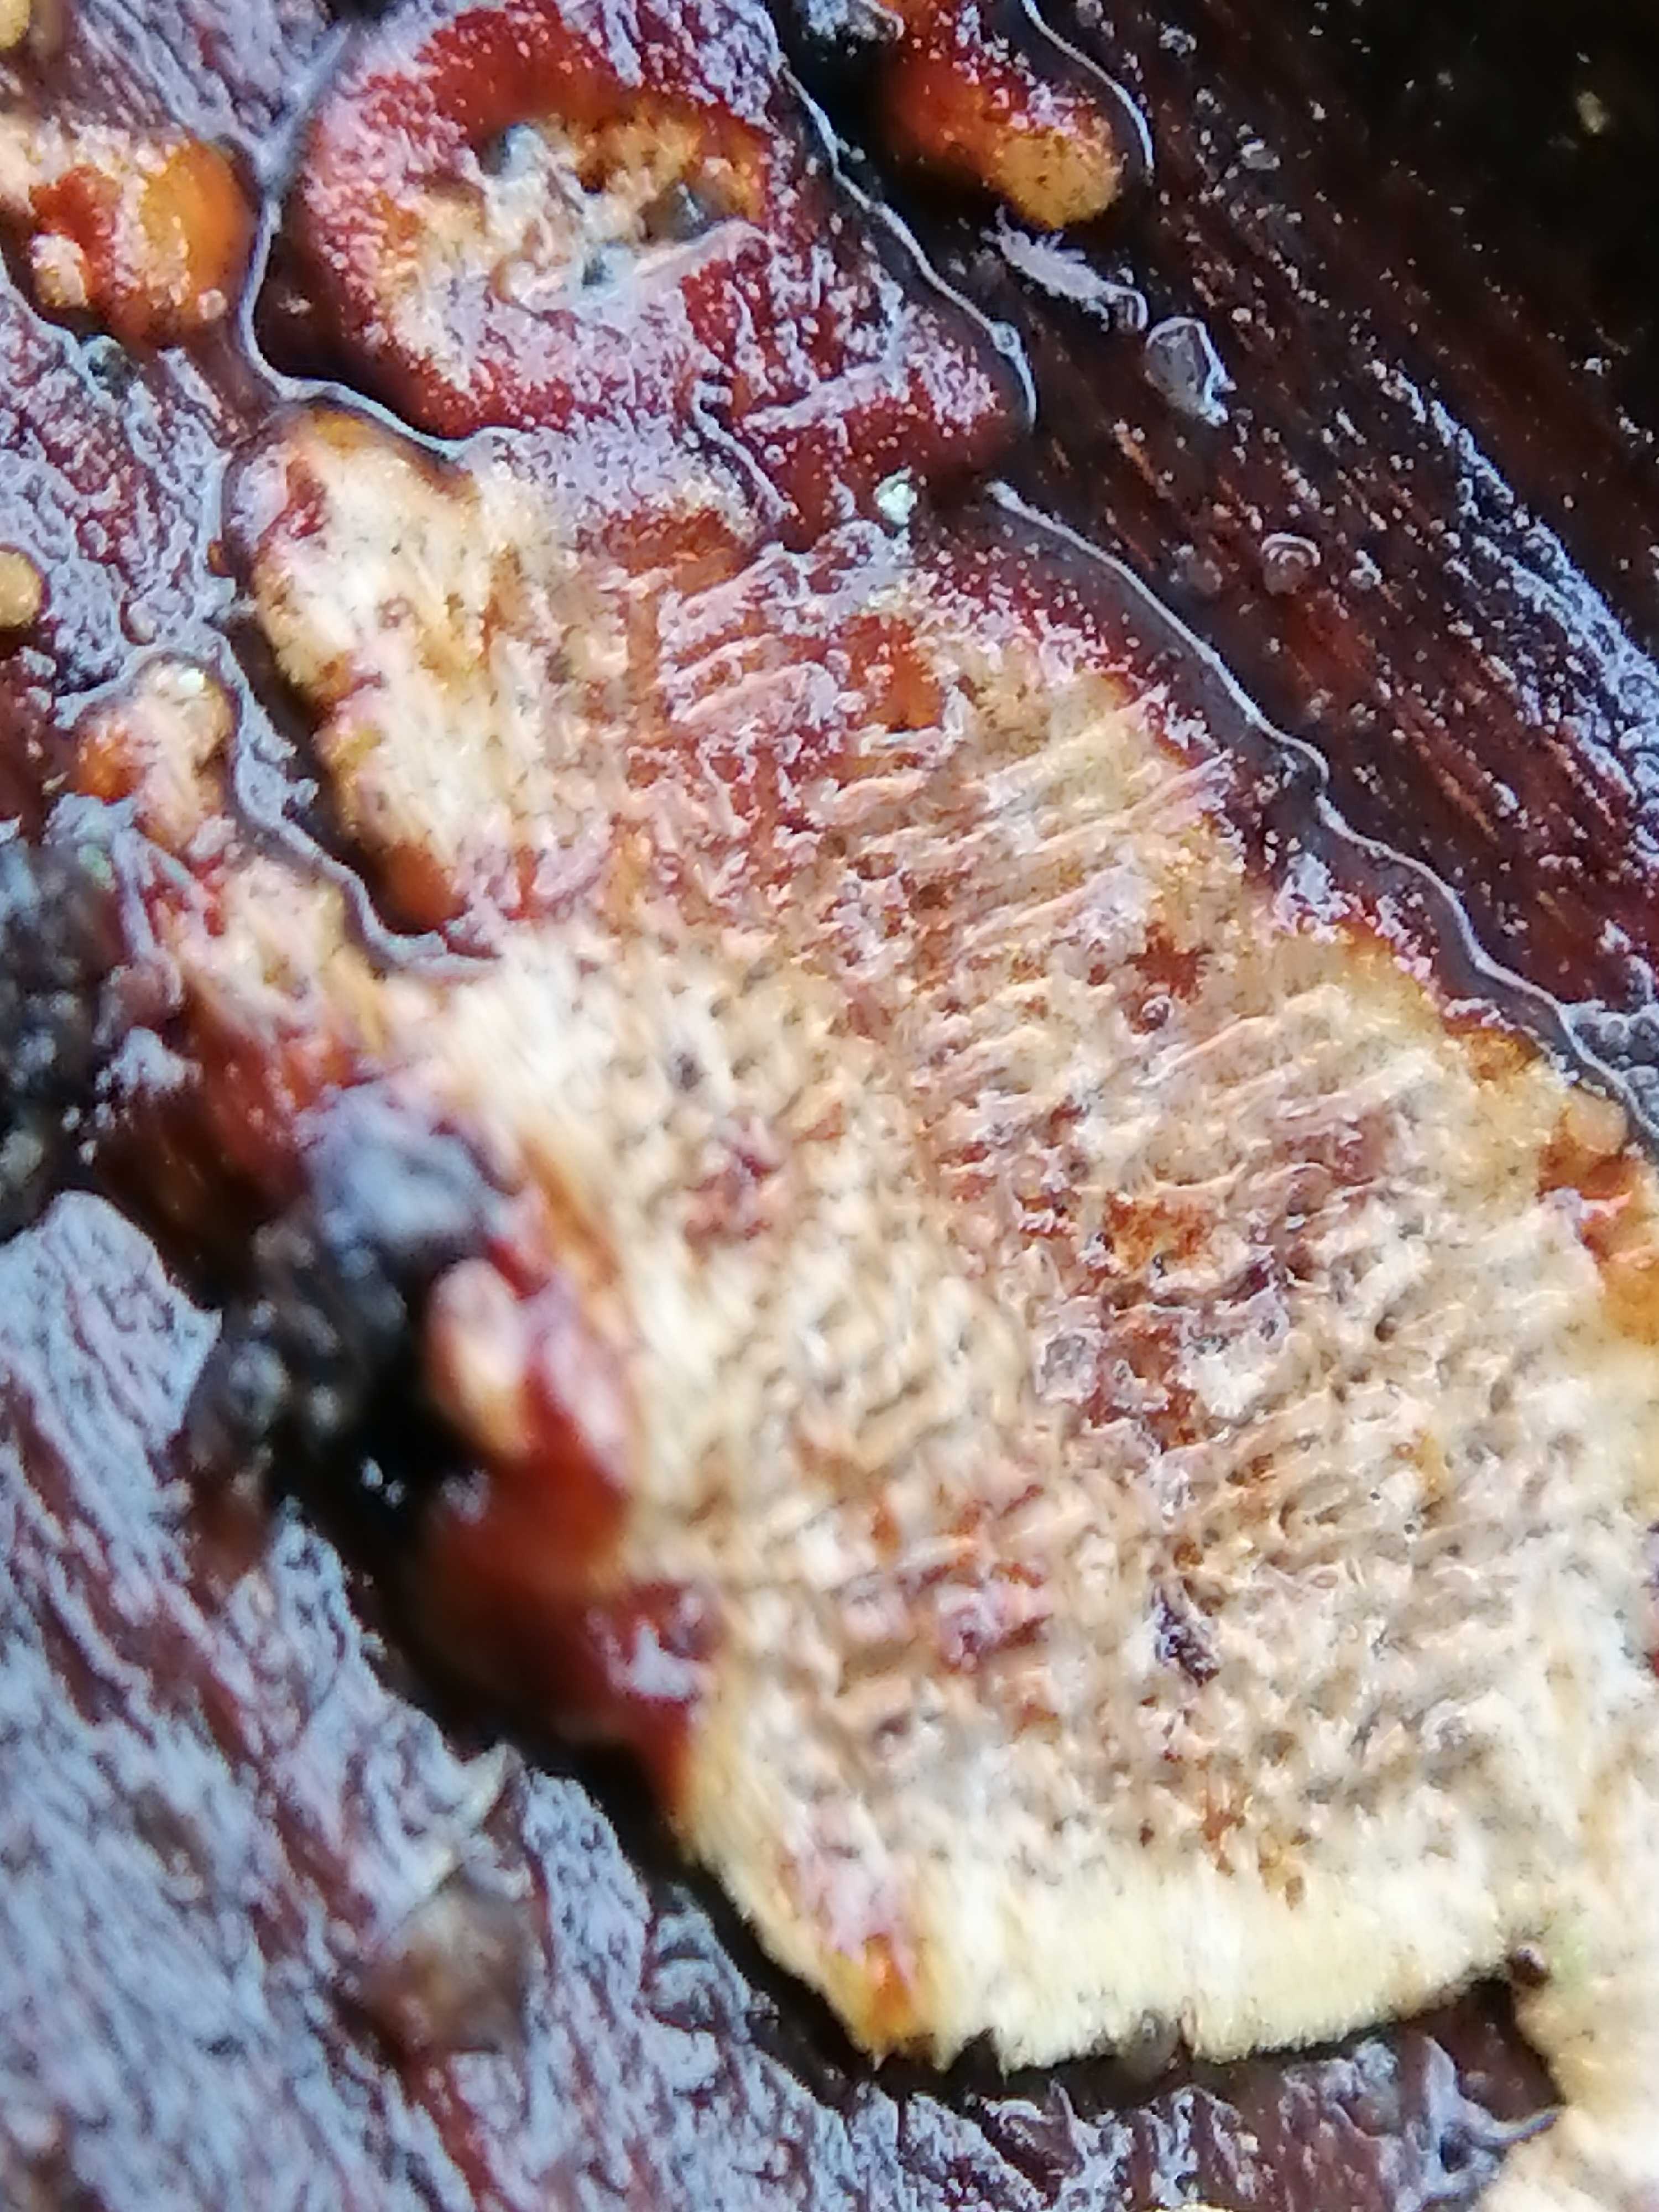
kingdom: Fungi
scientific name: Fungi
